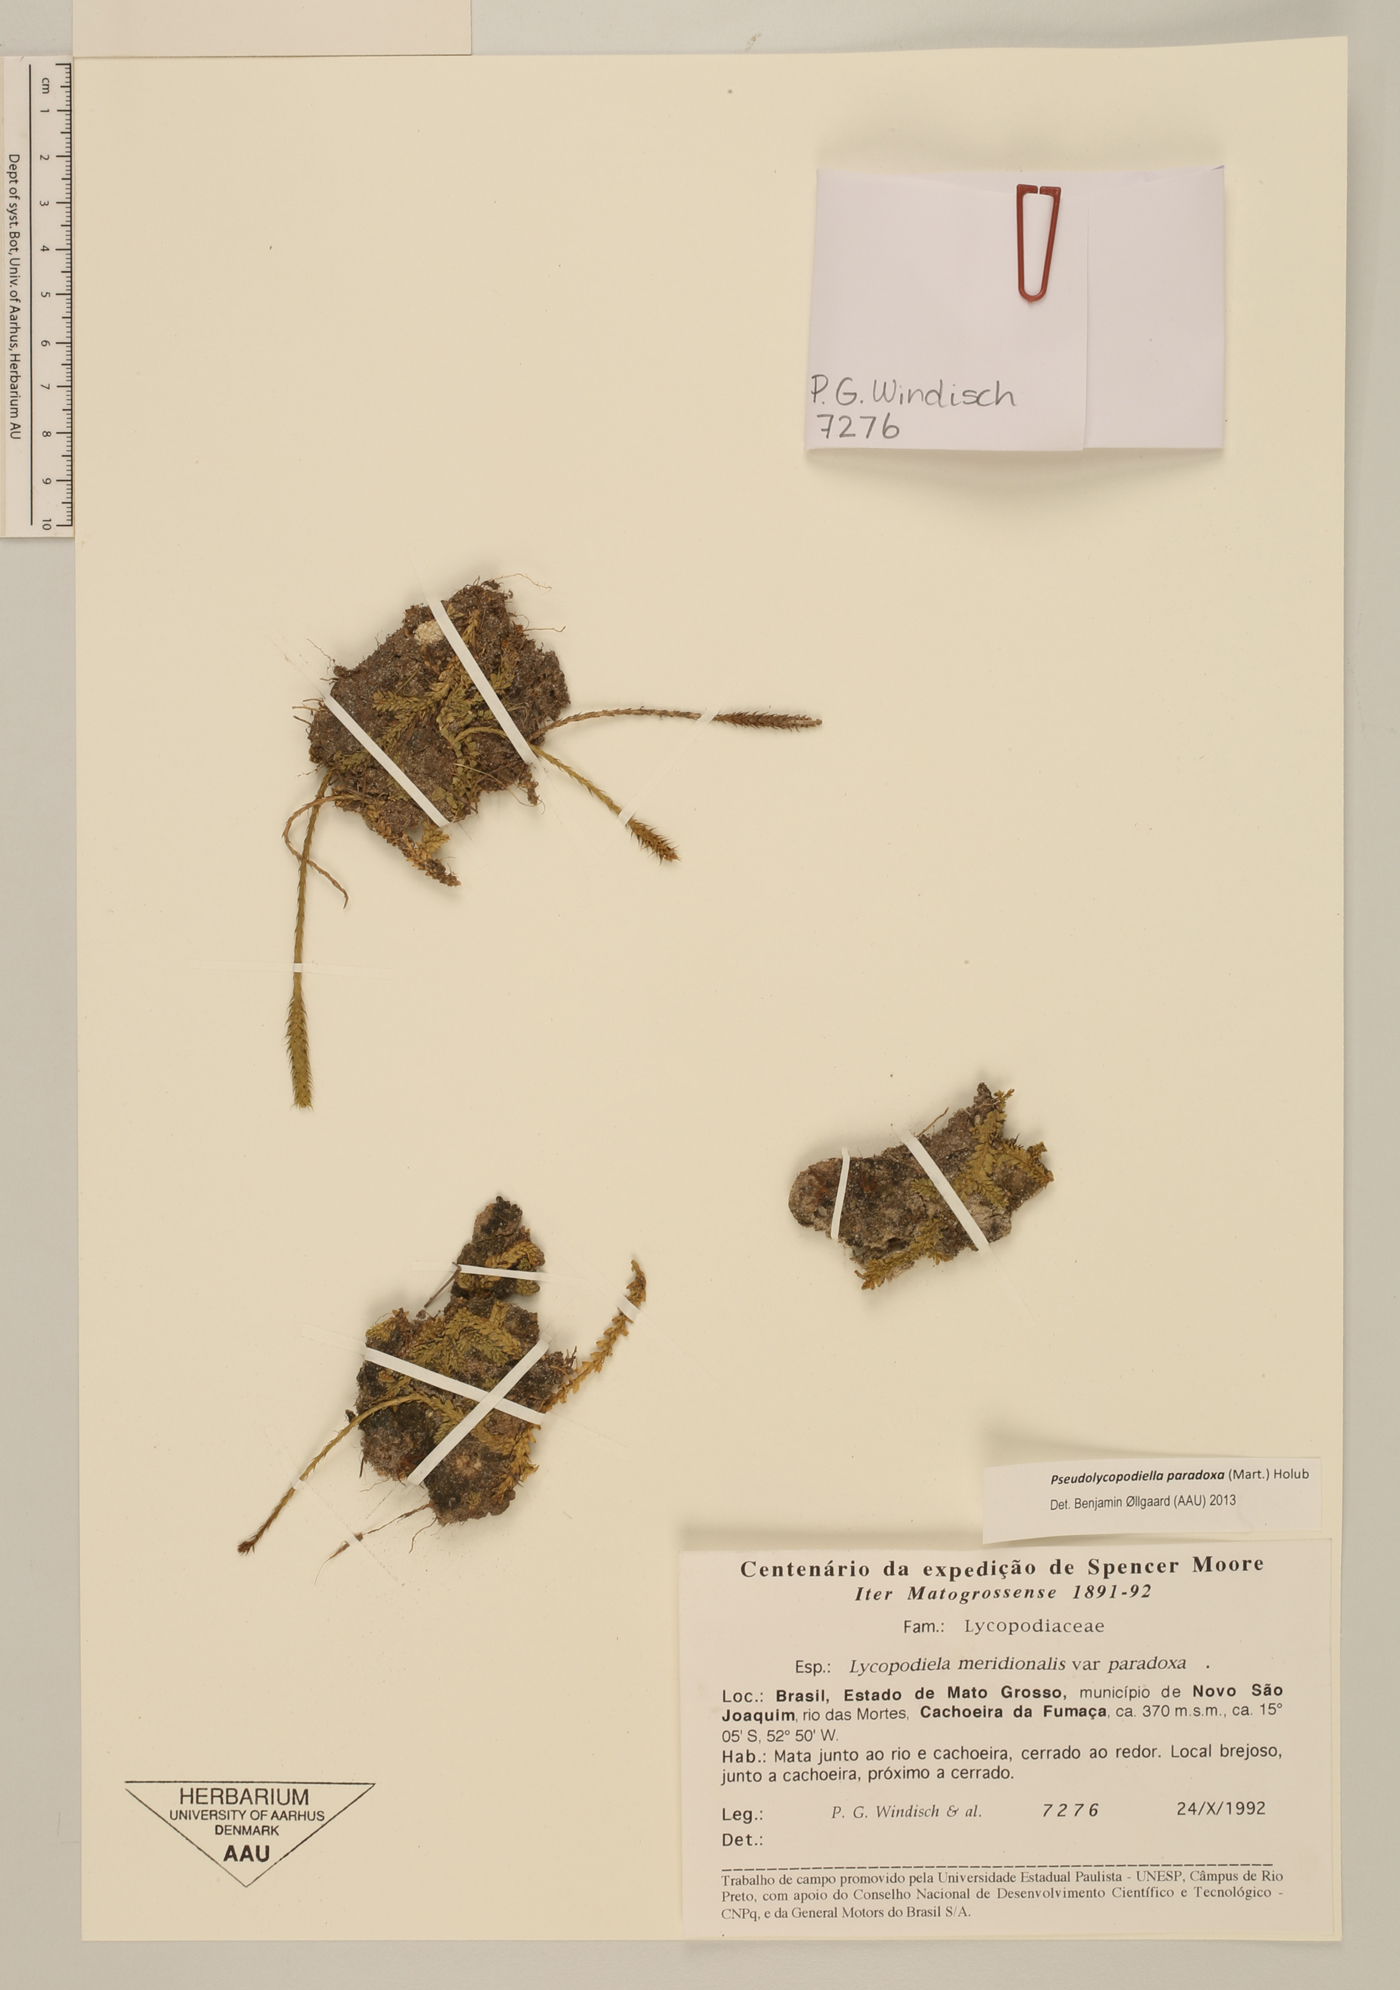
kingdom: Plantae
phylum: Tracheophyta
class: Lycopodiopsida
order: Lycopodiales
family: Lycopodiaceae
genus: Pseudolycopodiella
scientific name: Pseudolycopodiella paradoxa
